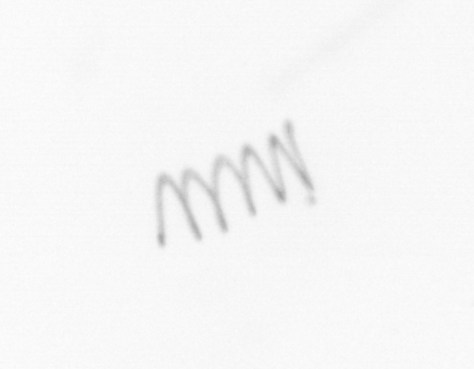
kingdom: Chromista
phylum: Ochrophyta
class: Bacillariophyceae
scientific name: Bacillariophyceae
